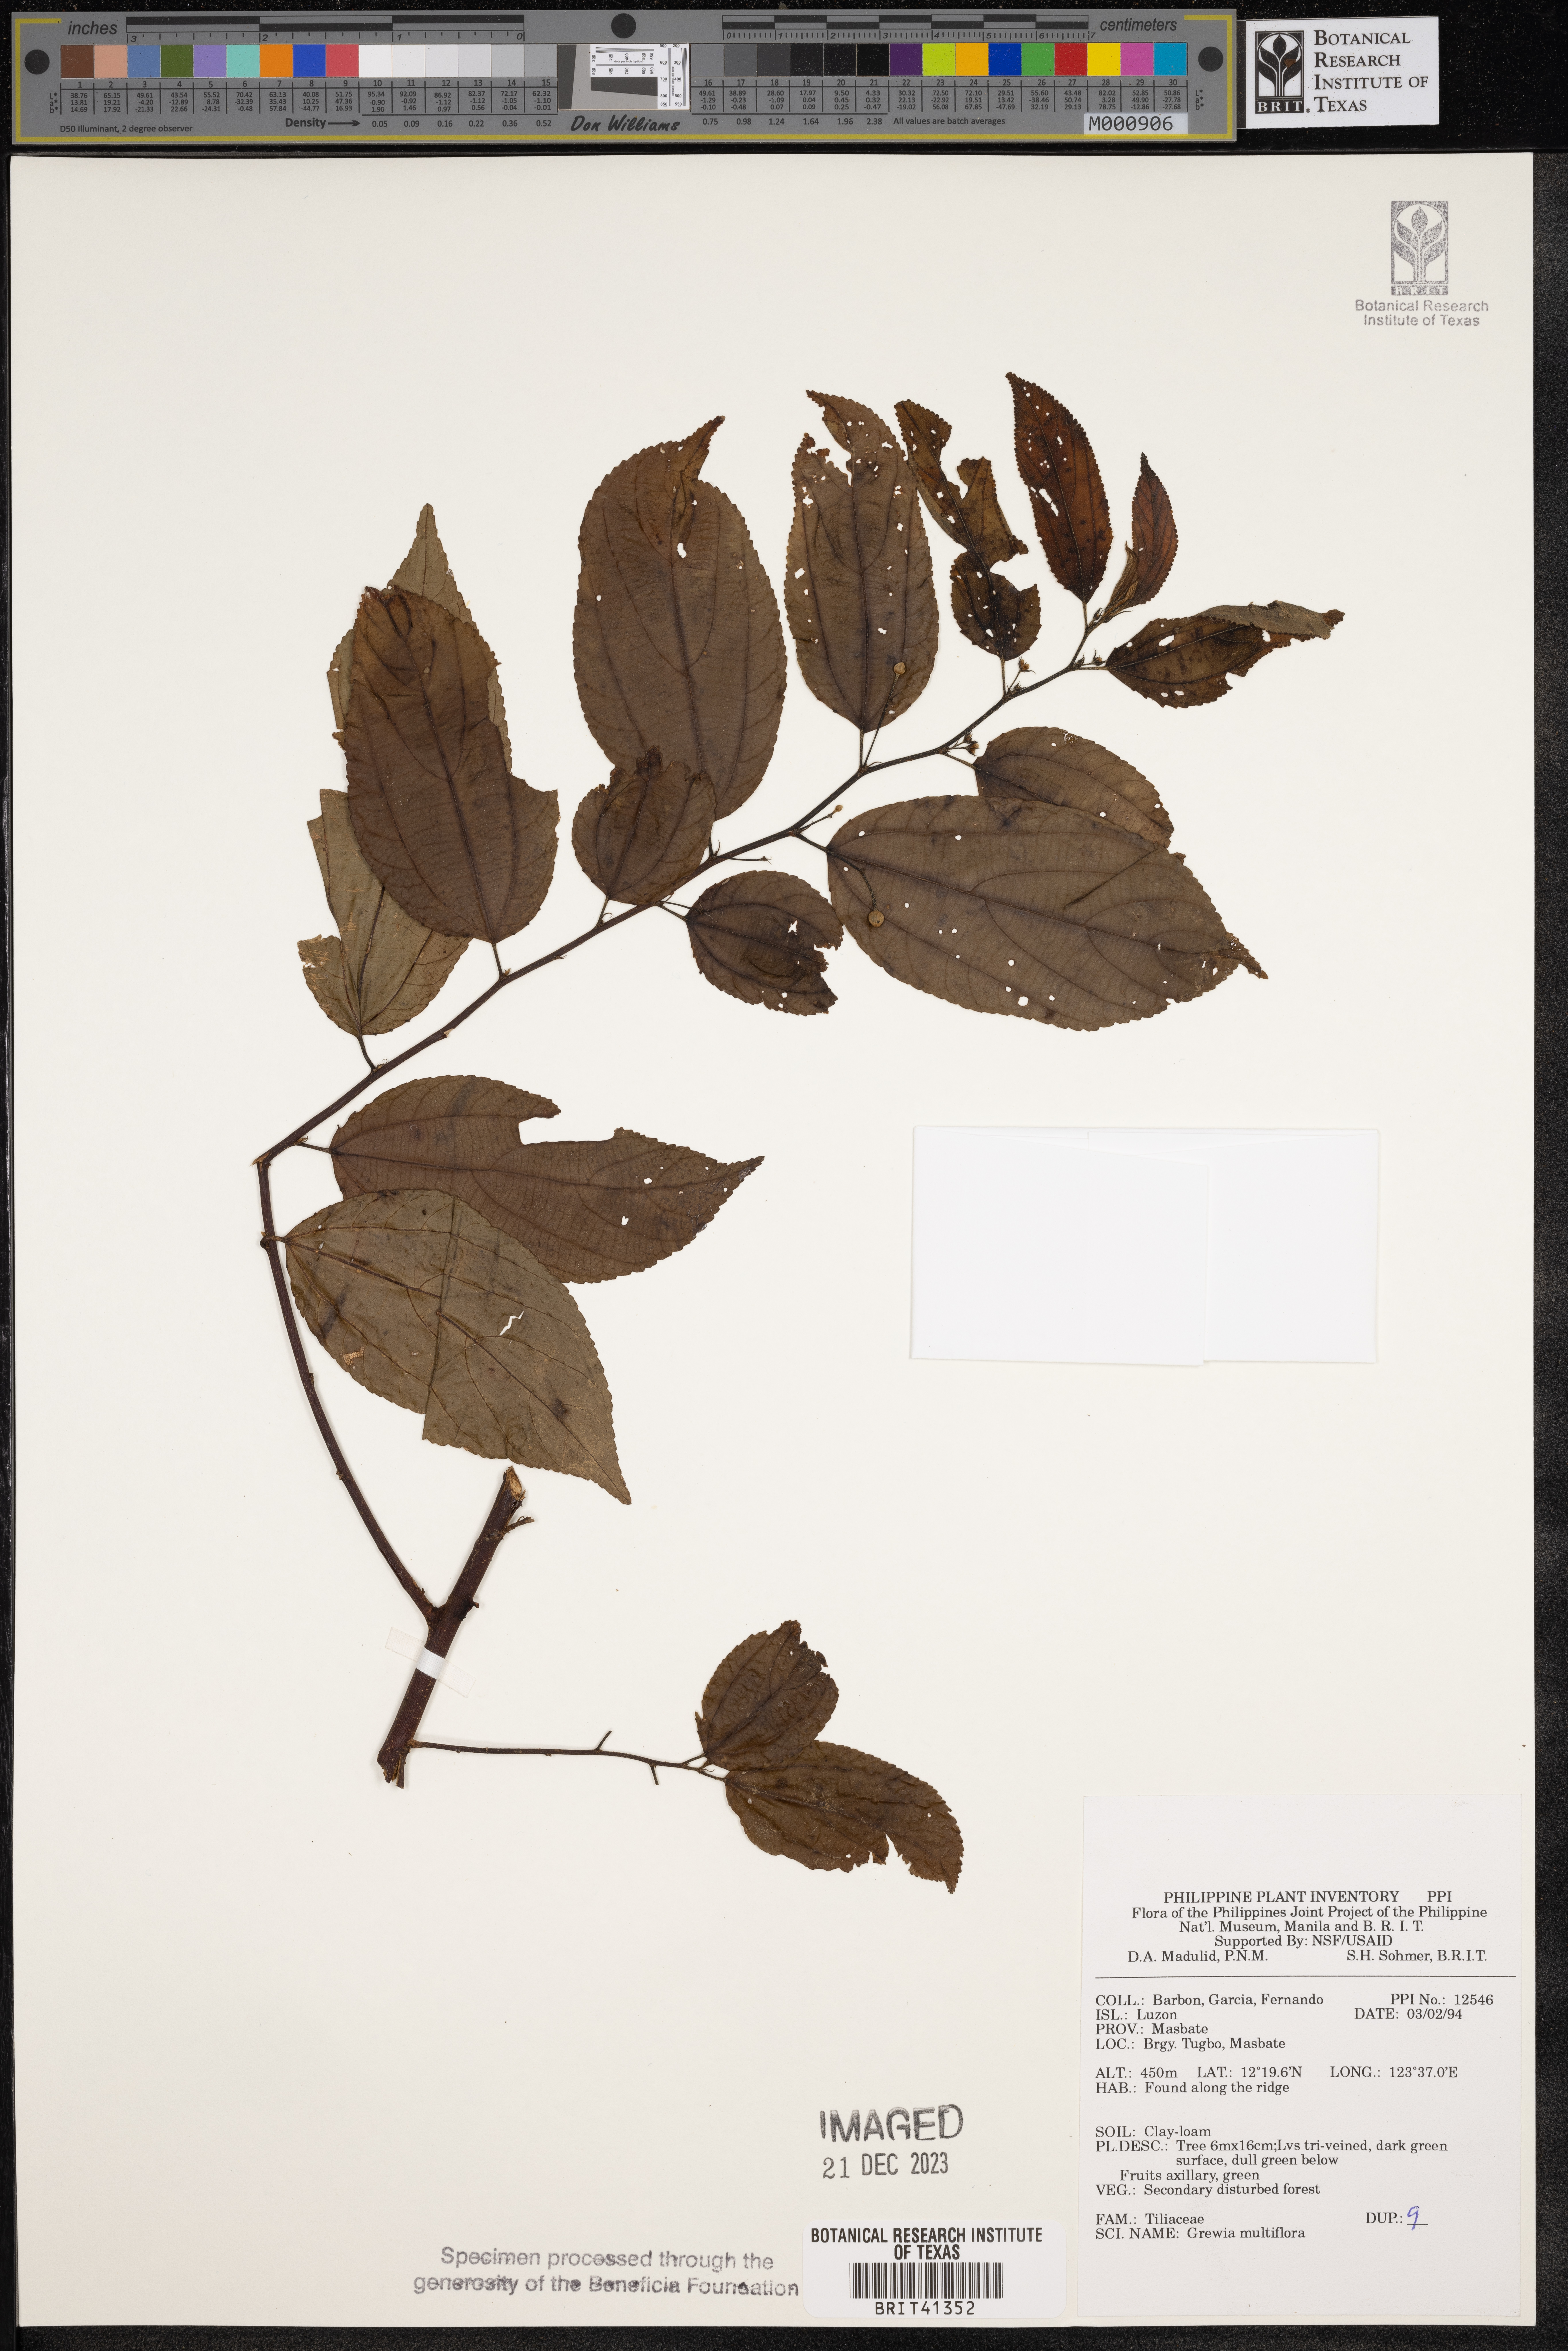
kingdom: Plantae
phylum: Tracheophyta
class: Magnoliopsida
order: Malvales
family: Malvaceae
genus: Grewia
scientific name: Grewia multiflora
